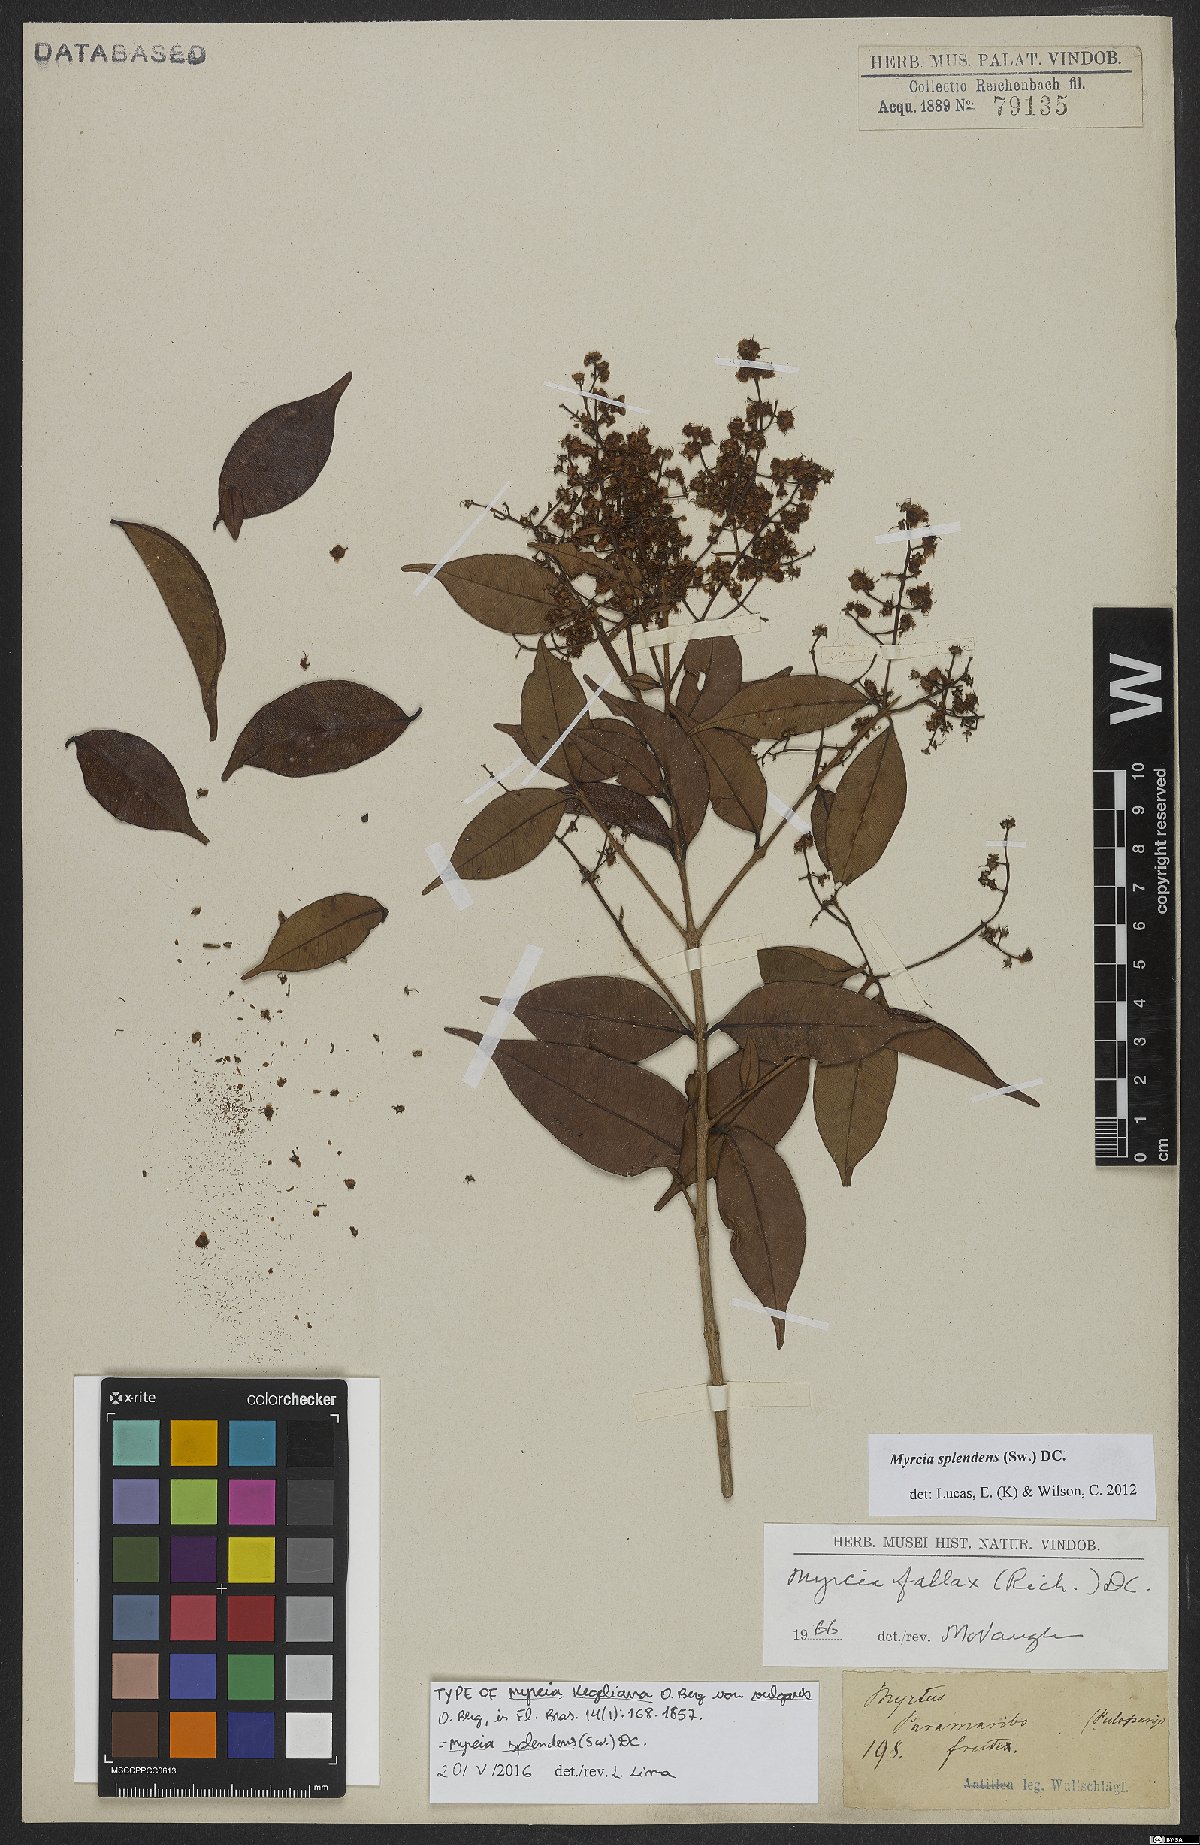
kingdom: Plantae
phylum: Tracheophyta
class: Magnoliopsida
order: Myrtales
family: Myrtaceae
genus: Myrcia
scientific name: Myrcia splendens
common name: Surinam cherry
